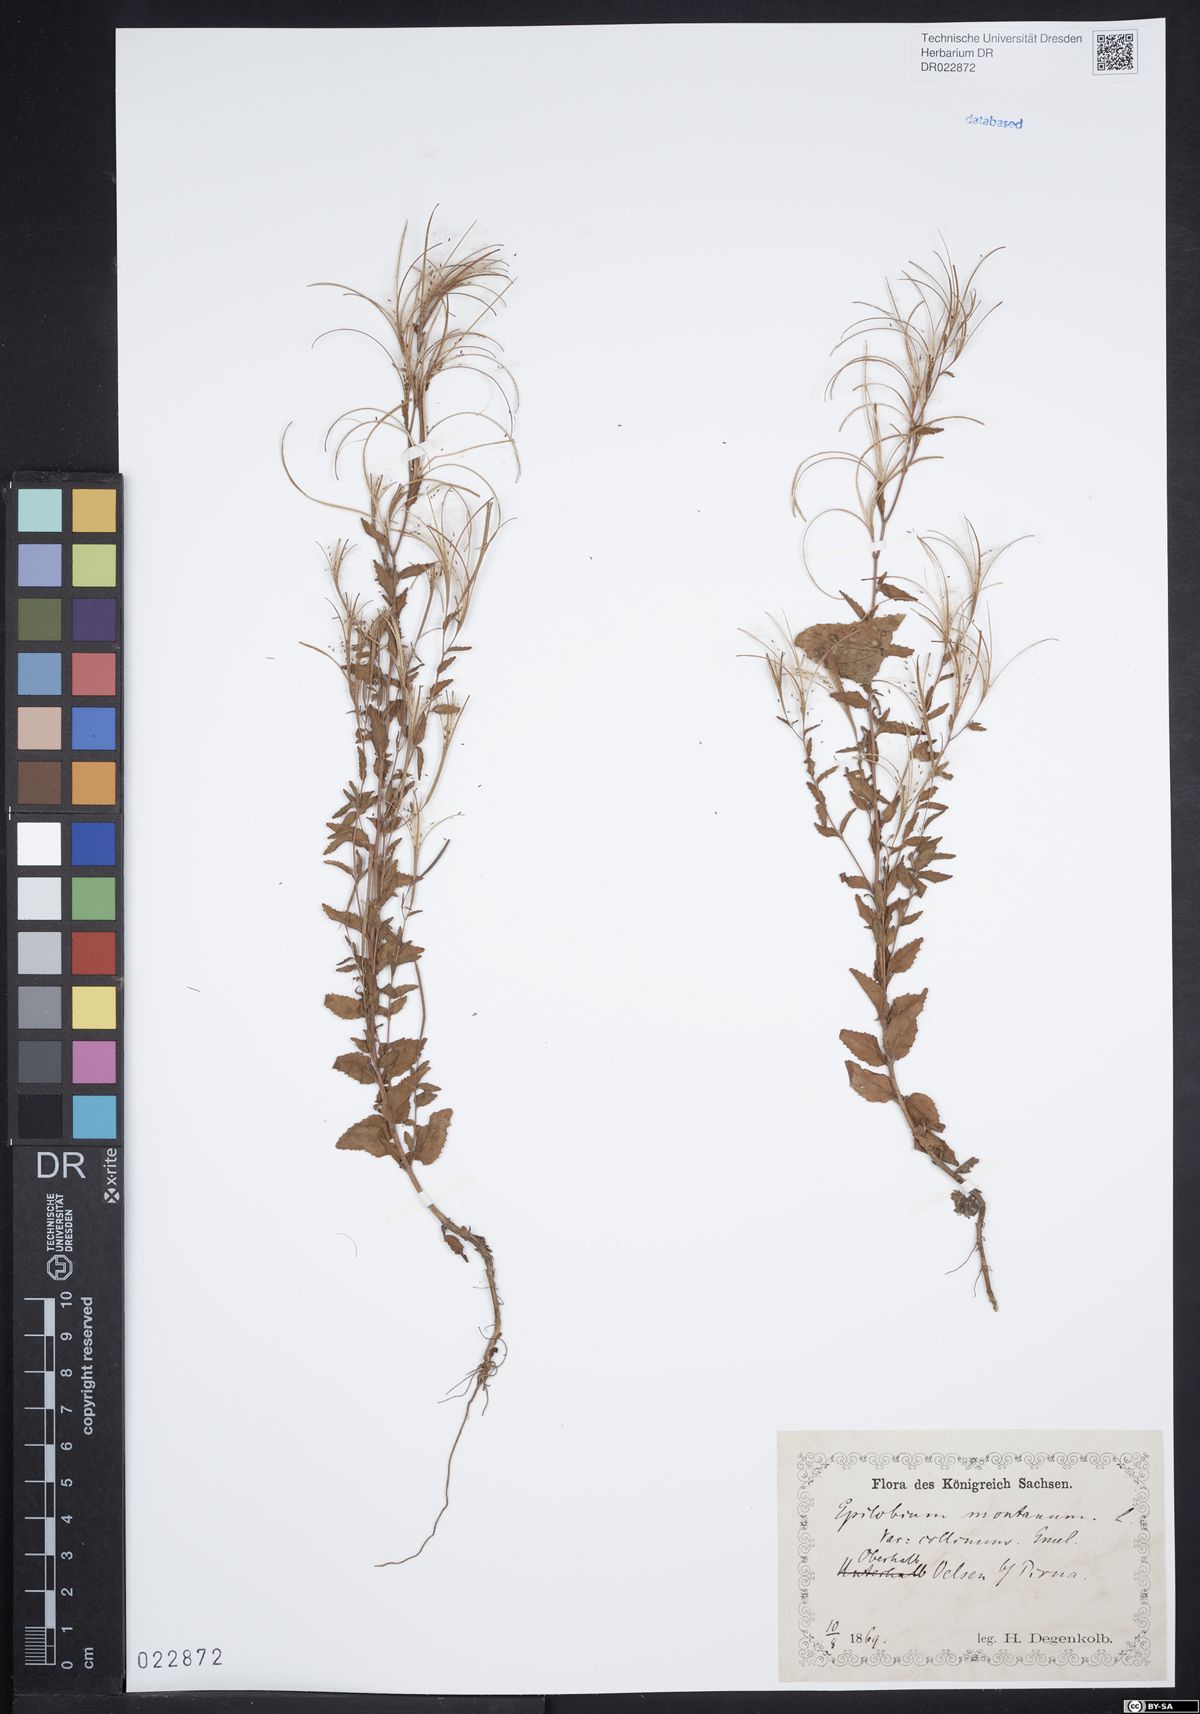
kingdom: Plantae
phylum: Tracheophyta
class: Magnoliopsida
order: Myrtales
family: Onagraceae
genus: Epilobium
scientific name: Epilobium collinum
